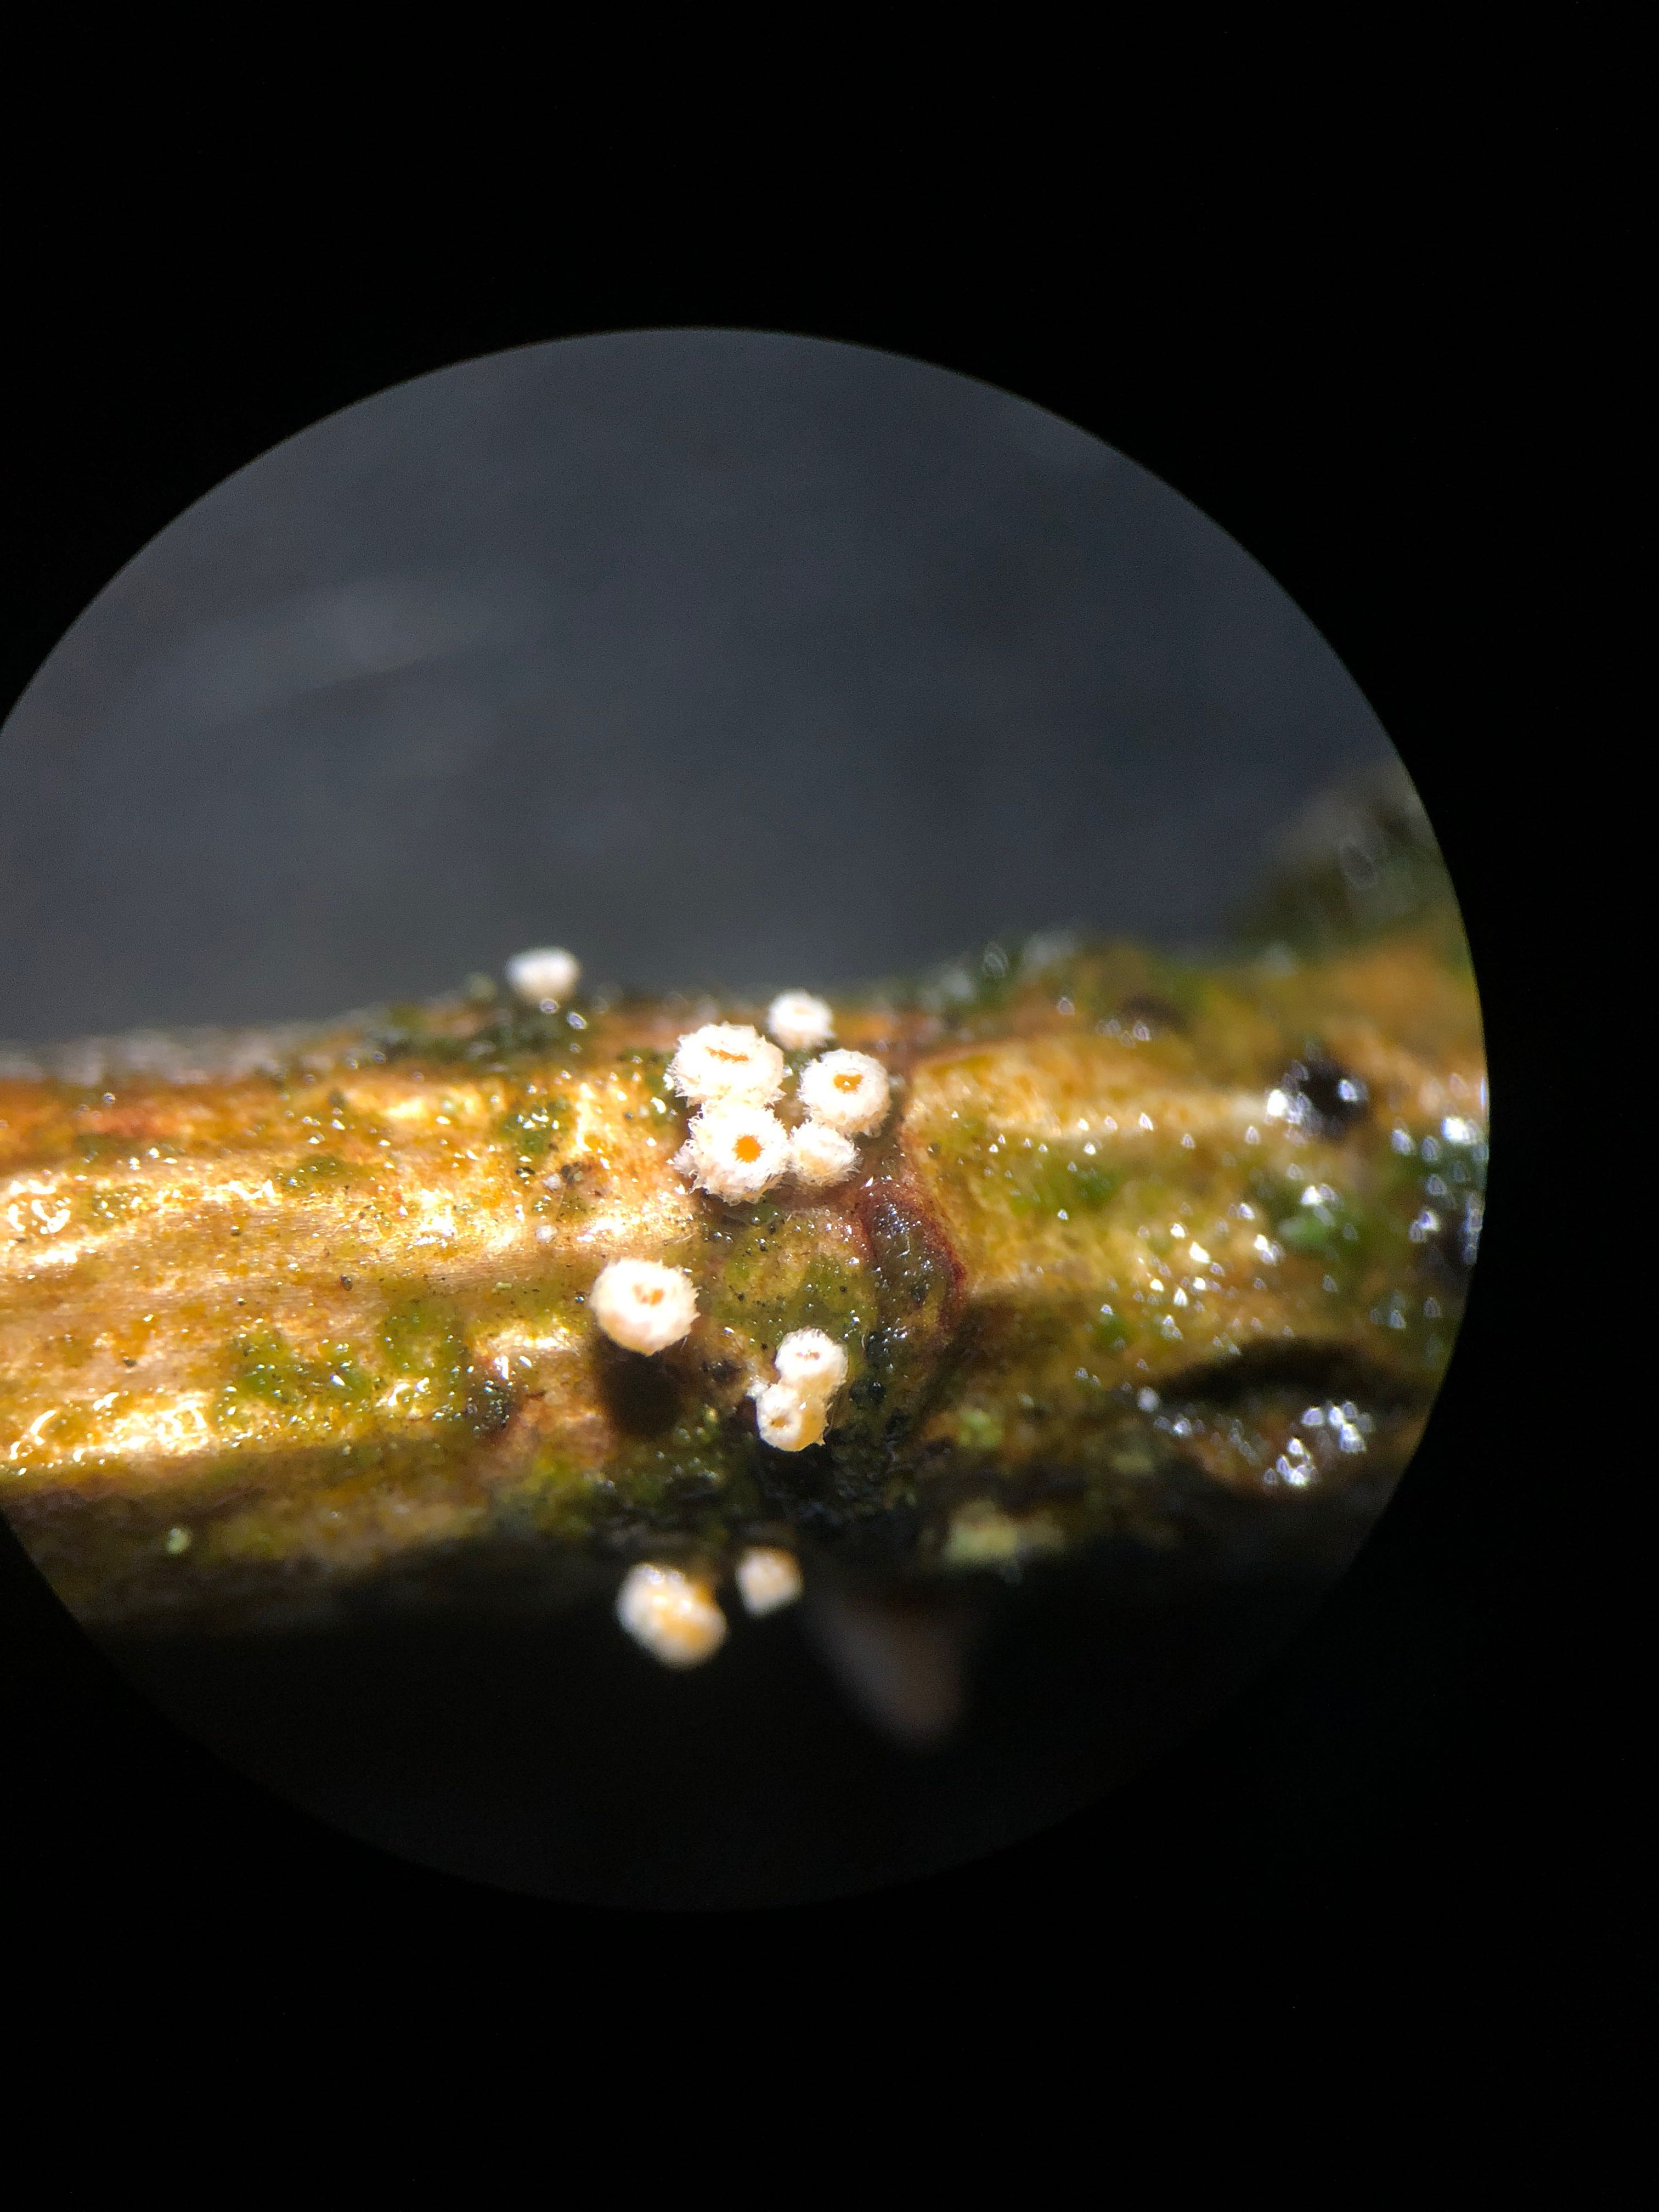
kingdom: Fungi
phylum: Ascomycota
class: Leotiomycetes
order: Helotiales
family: Lachnaceae
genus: Capitotricha
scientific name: Capitotricha bicolor
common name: prægtig frynseskive
